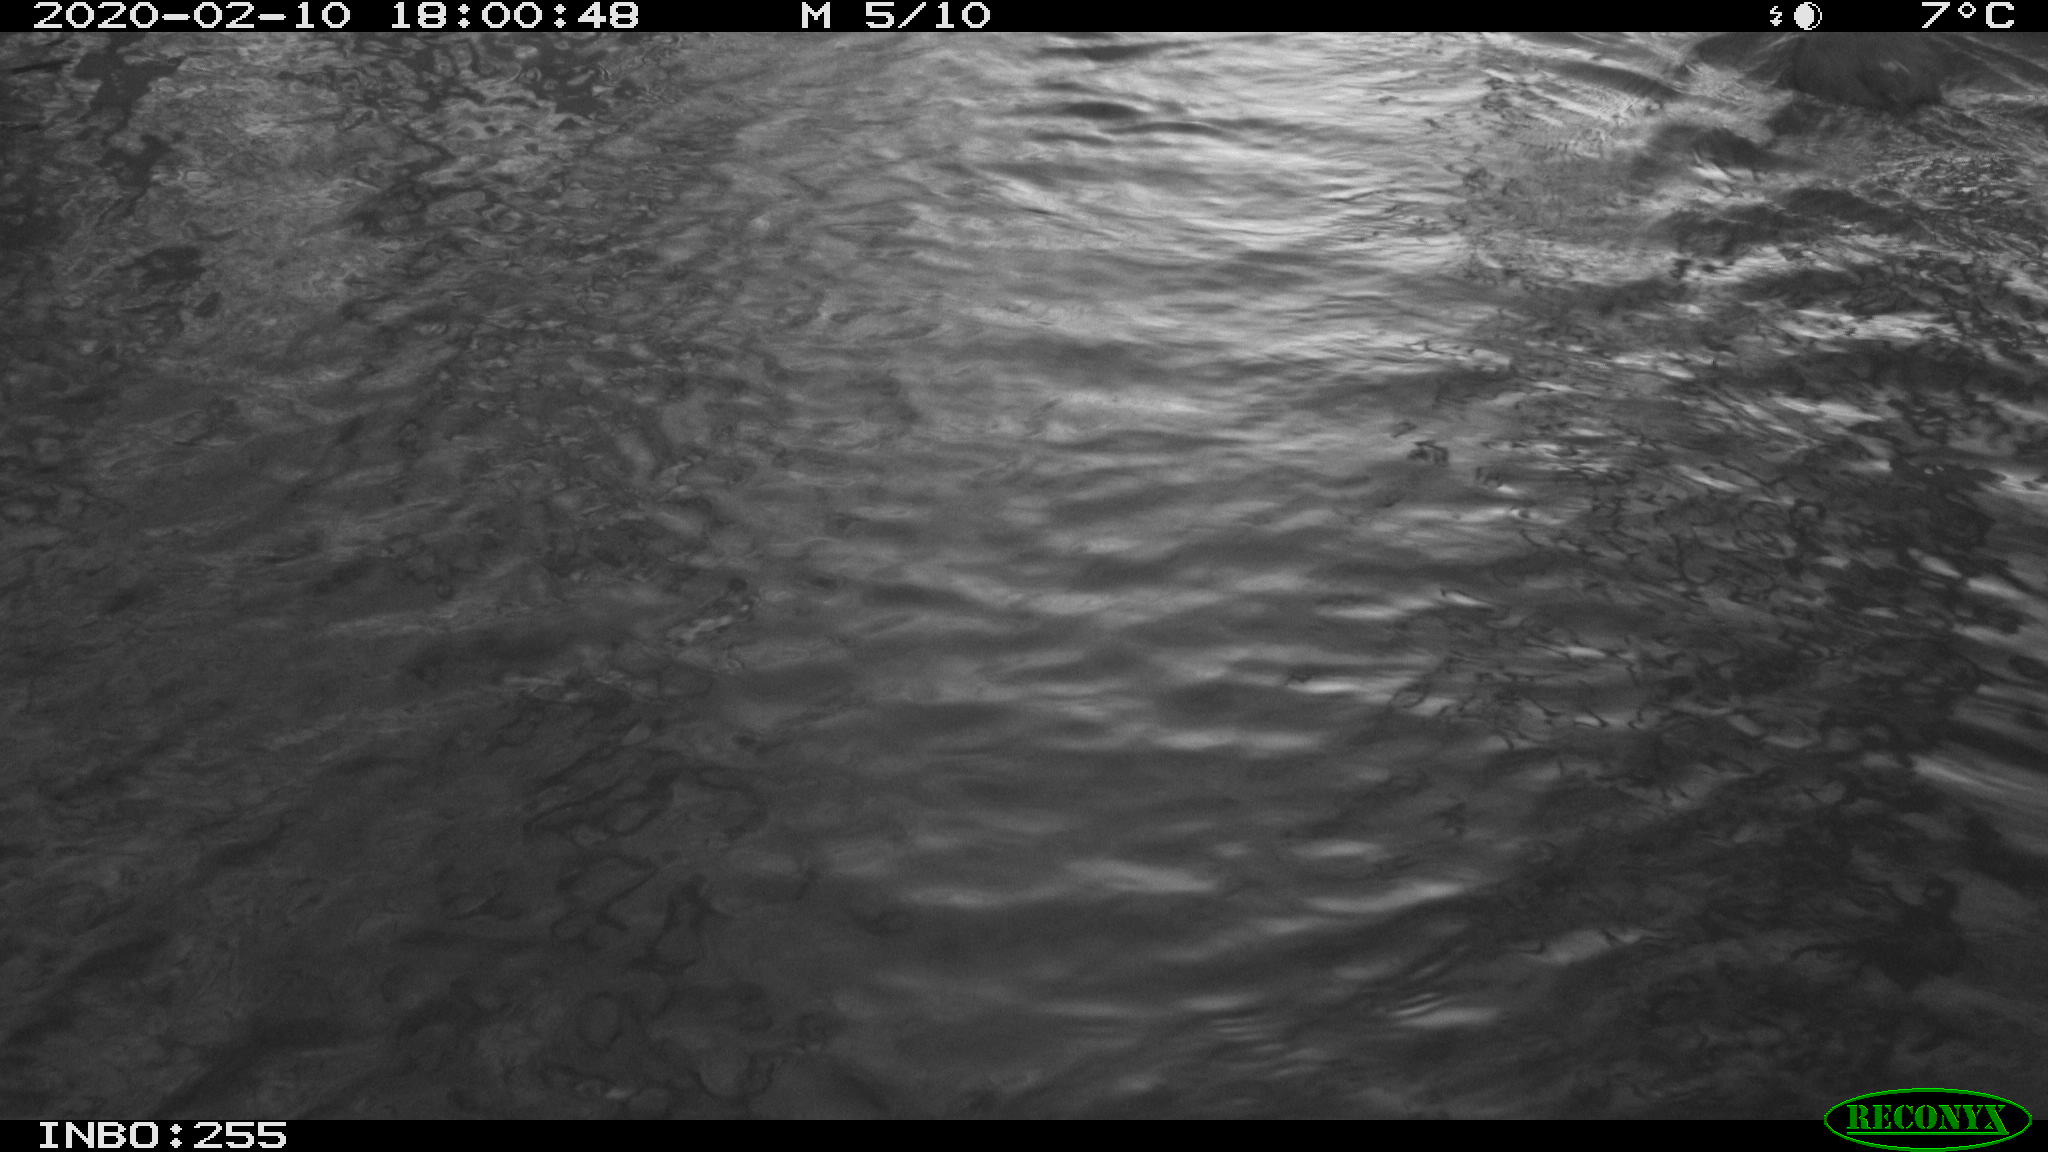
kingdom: Animalia
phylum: Chordata
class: Aves
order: Gruiformes
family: Rallidae
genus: Fulica
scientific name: Fulica atra
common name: Eurasian coot
